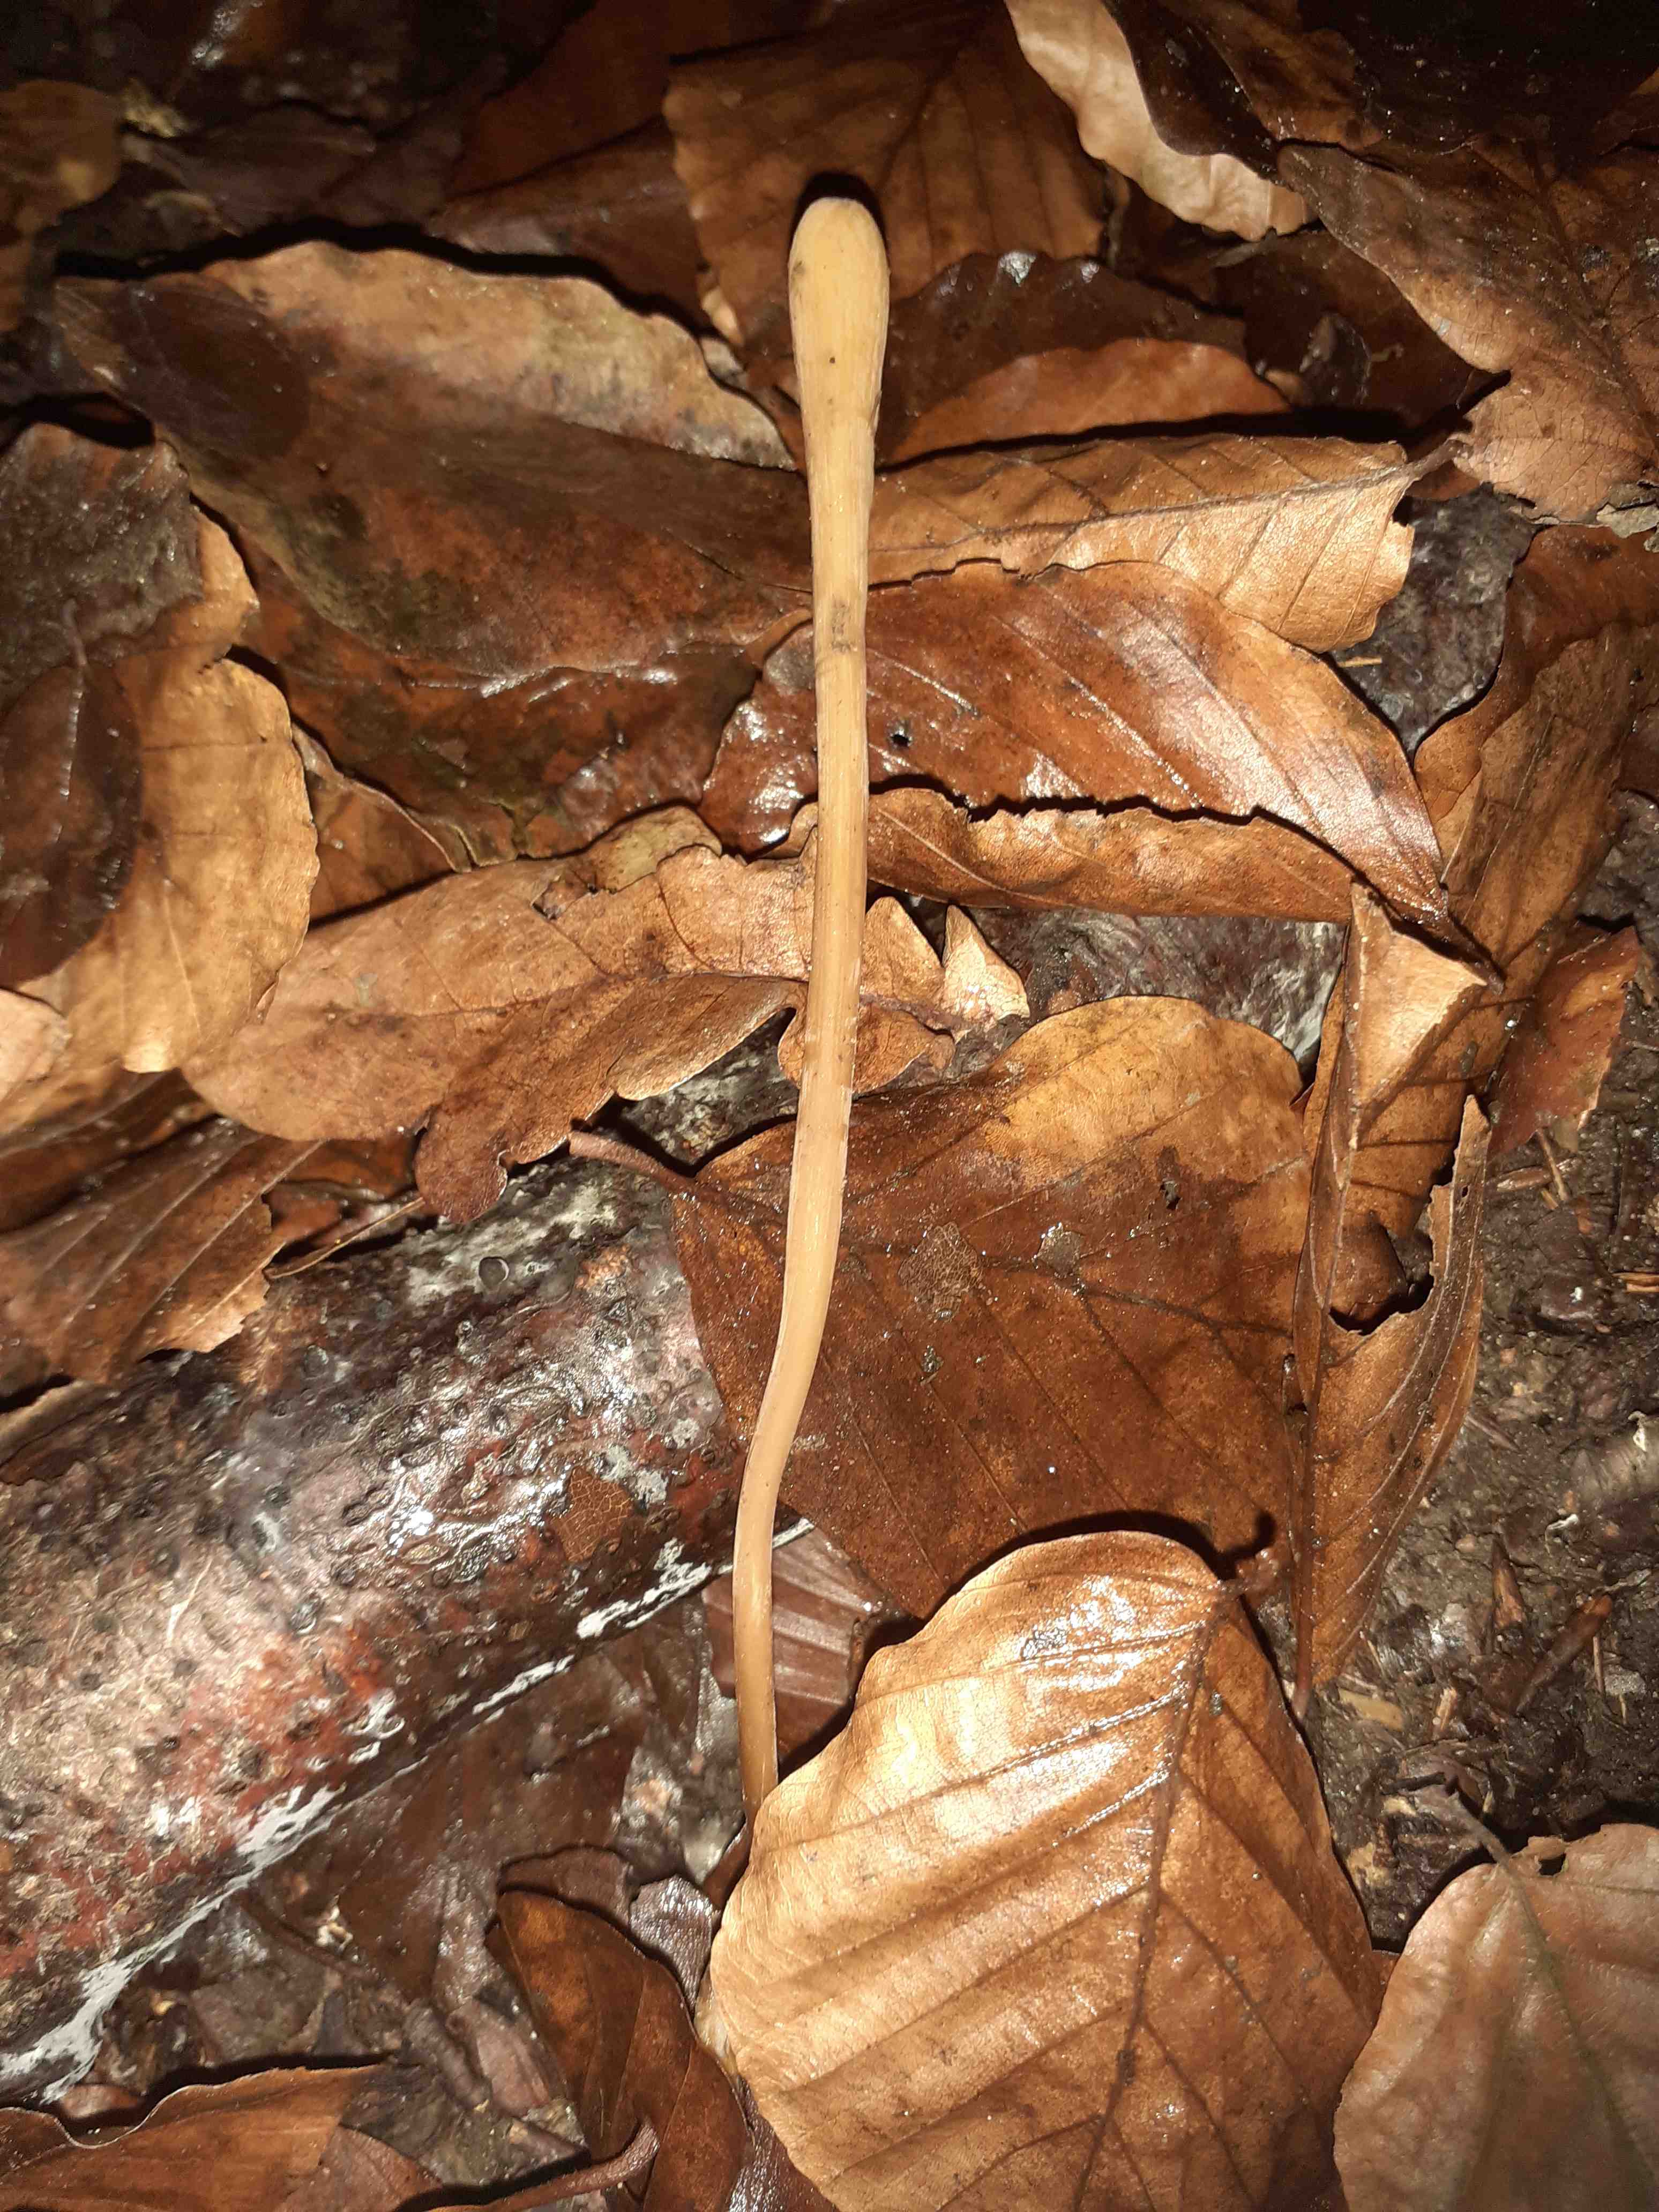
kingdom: Fungi
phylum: Basidiomycota
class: Agaricomycetes
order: Agaricales
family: Typhulaceae
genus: Typhula
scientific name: Typhula fistulosa
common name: pibet rørkølle
